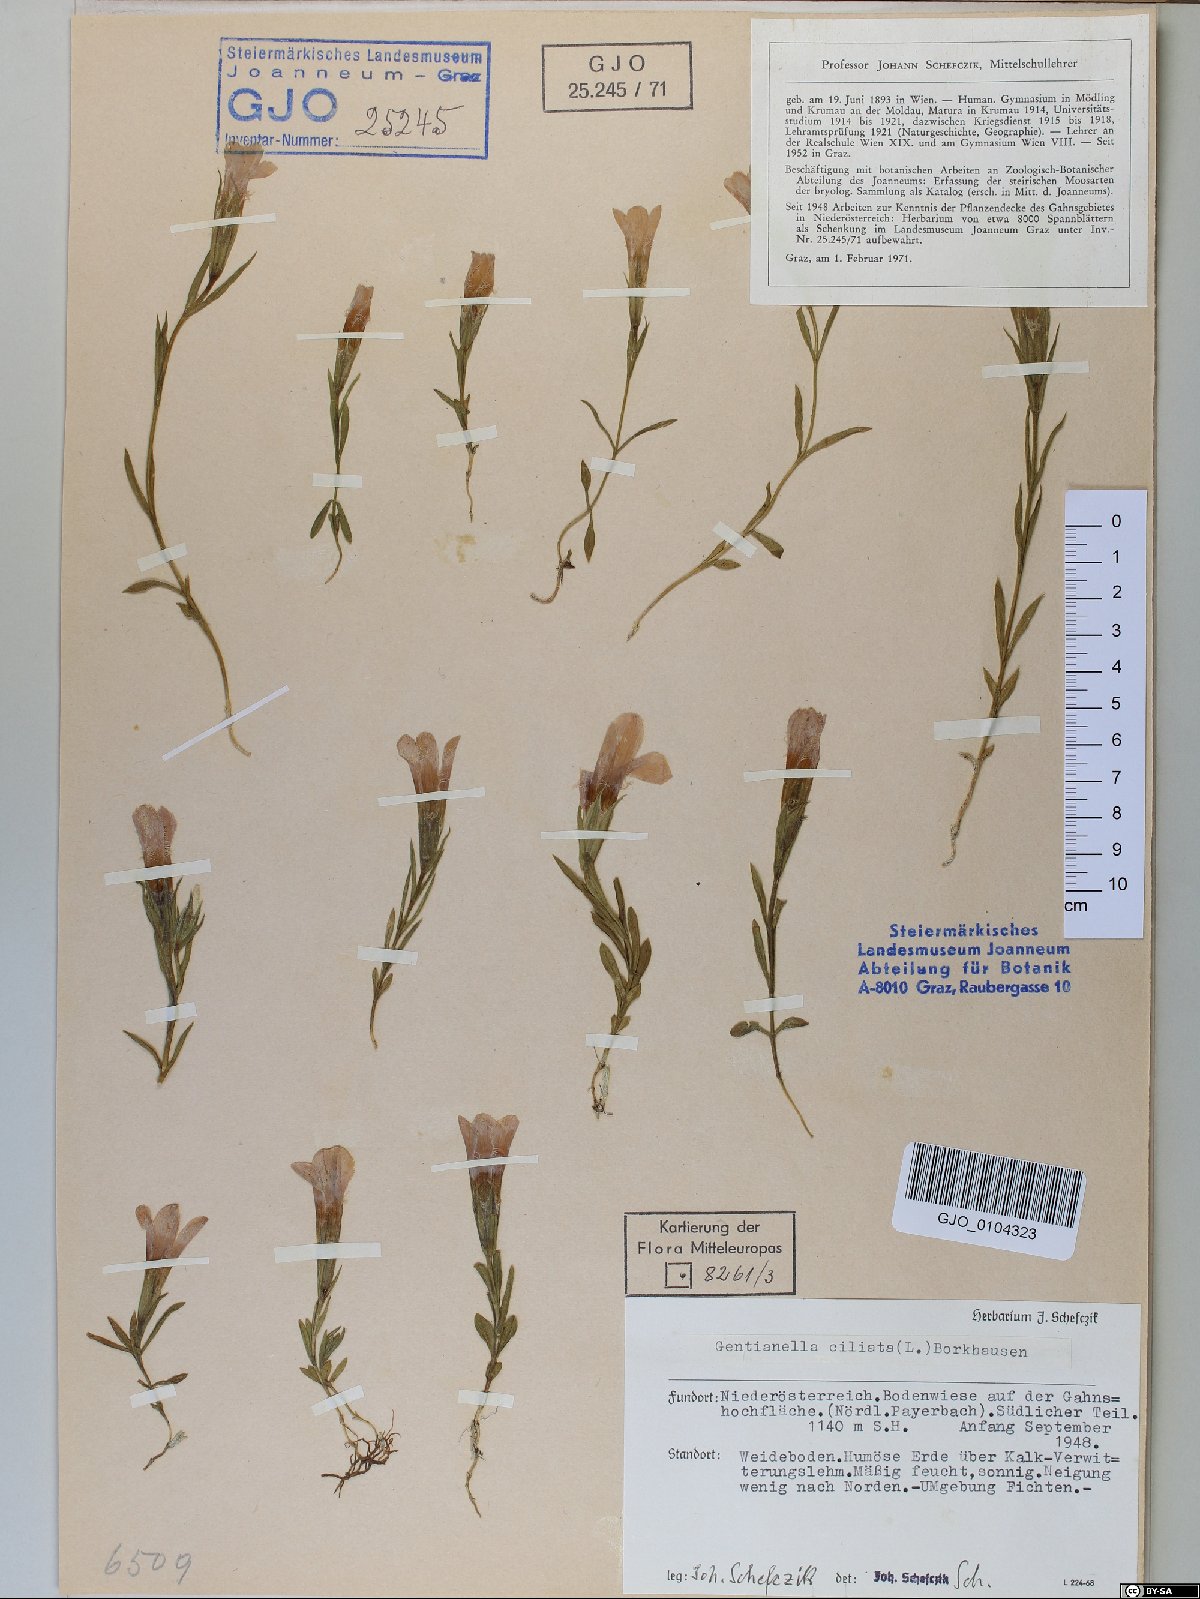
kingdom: Plantae
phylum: Tracheophyta
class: Magnoliopsida
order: Gentianales
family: Gentianaceae
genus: Gentianopsis
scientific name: Gentianopsis ciliata
